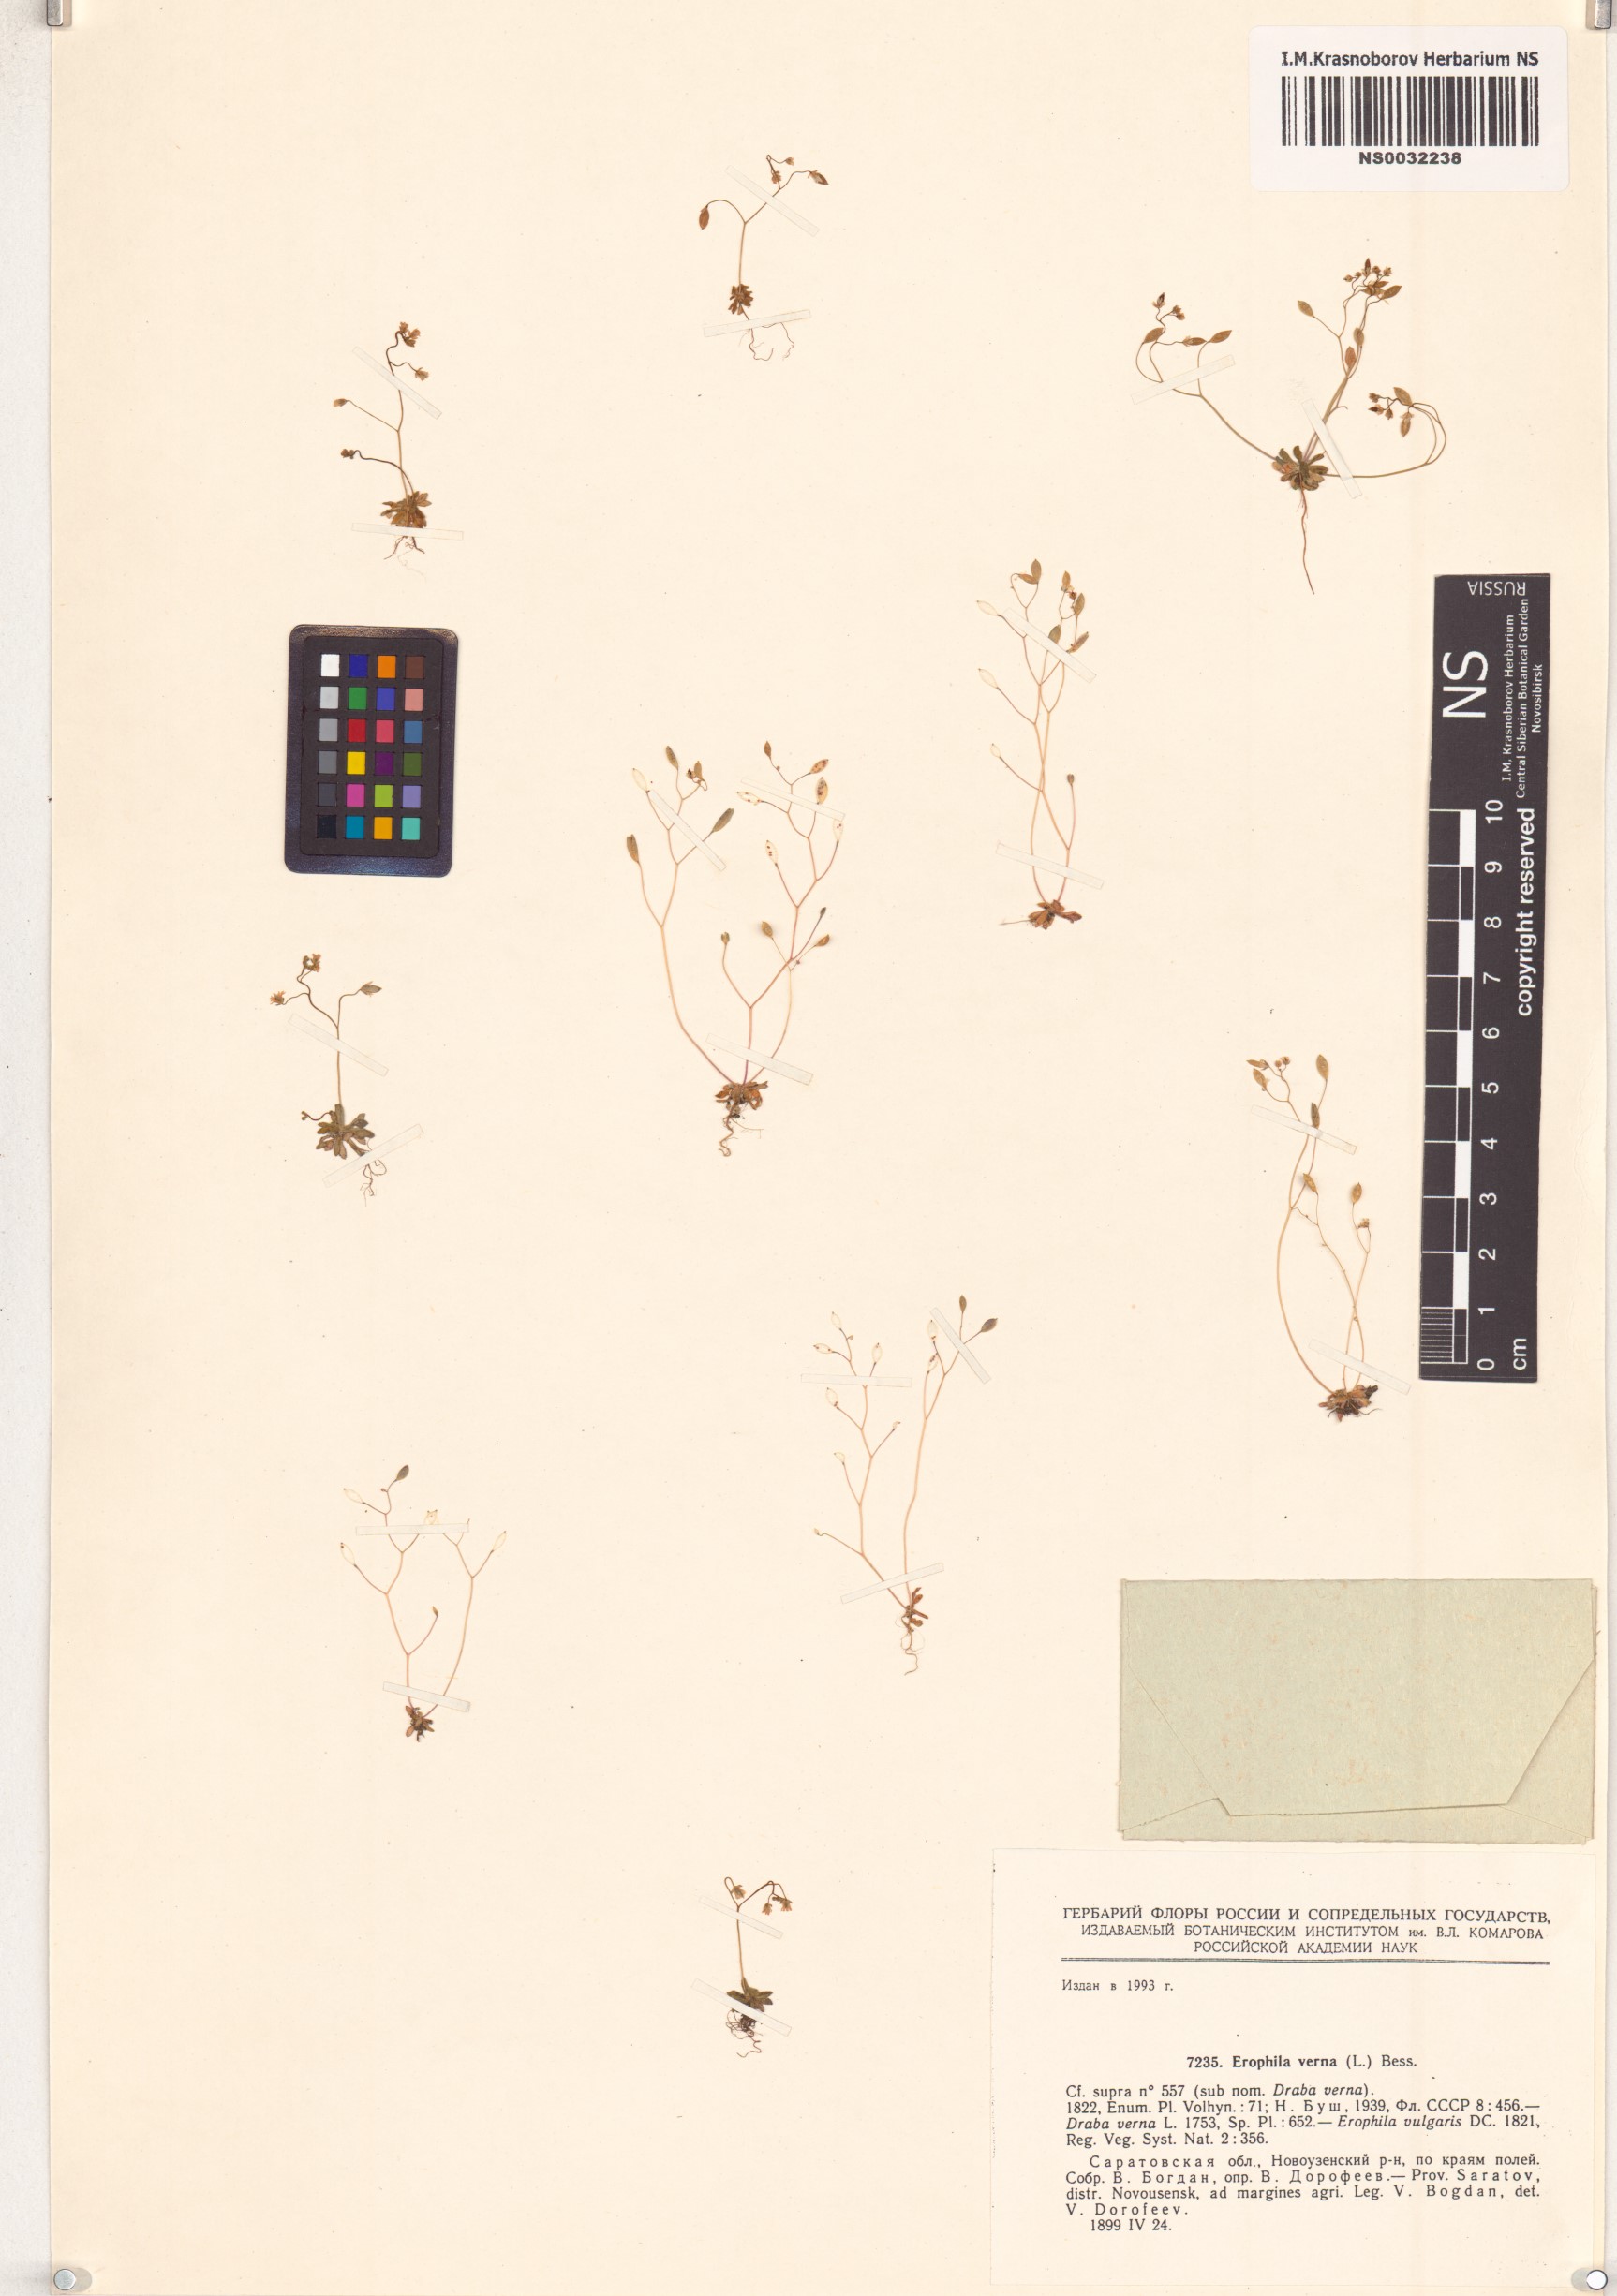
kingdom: Plantae
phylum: Tracheophyta
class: Magnoliopsida
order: Brassicales
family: Brassicaceae
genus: Draba
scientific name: Draba verna
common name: Spring draba
